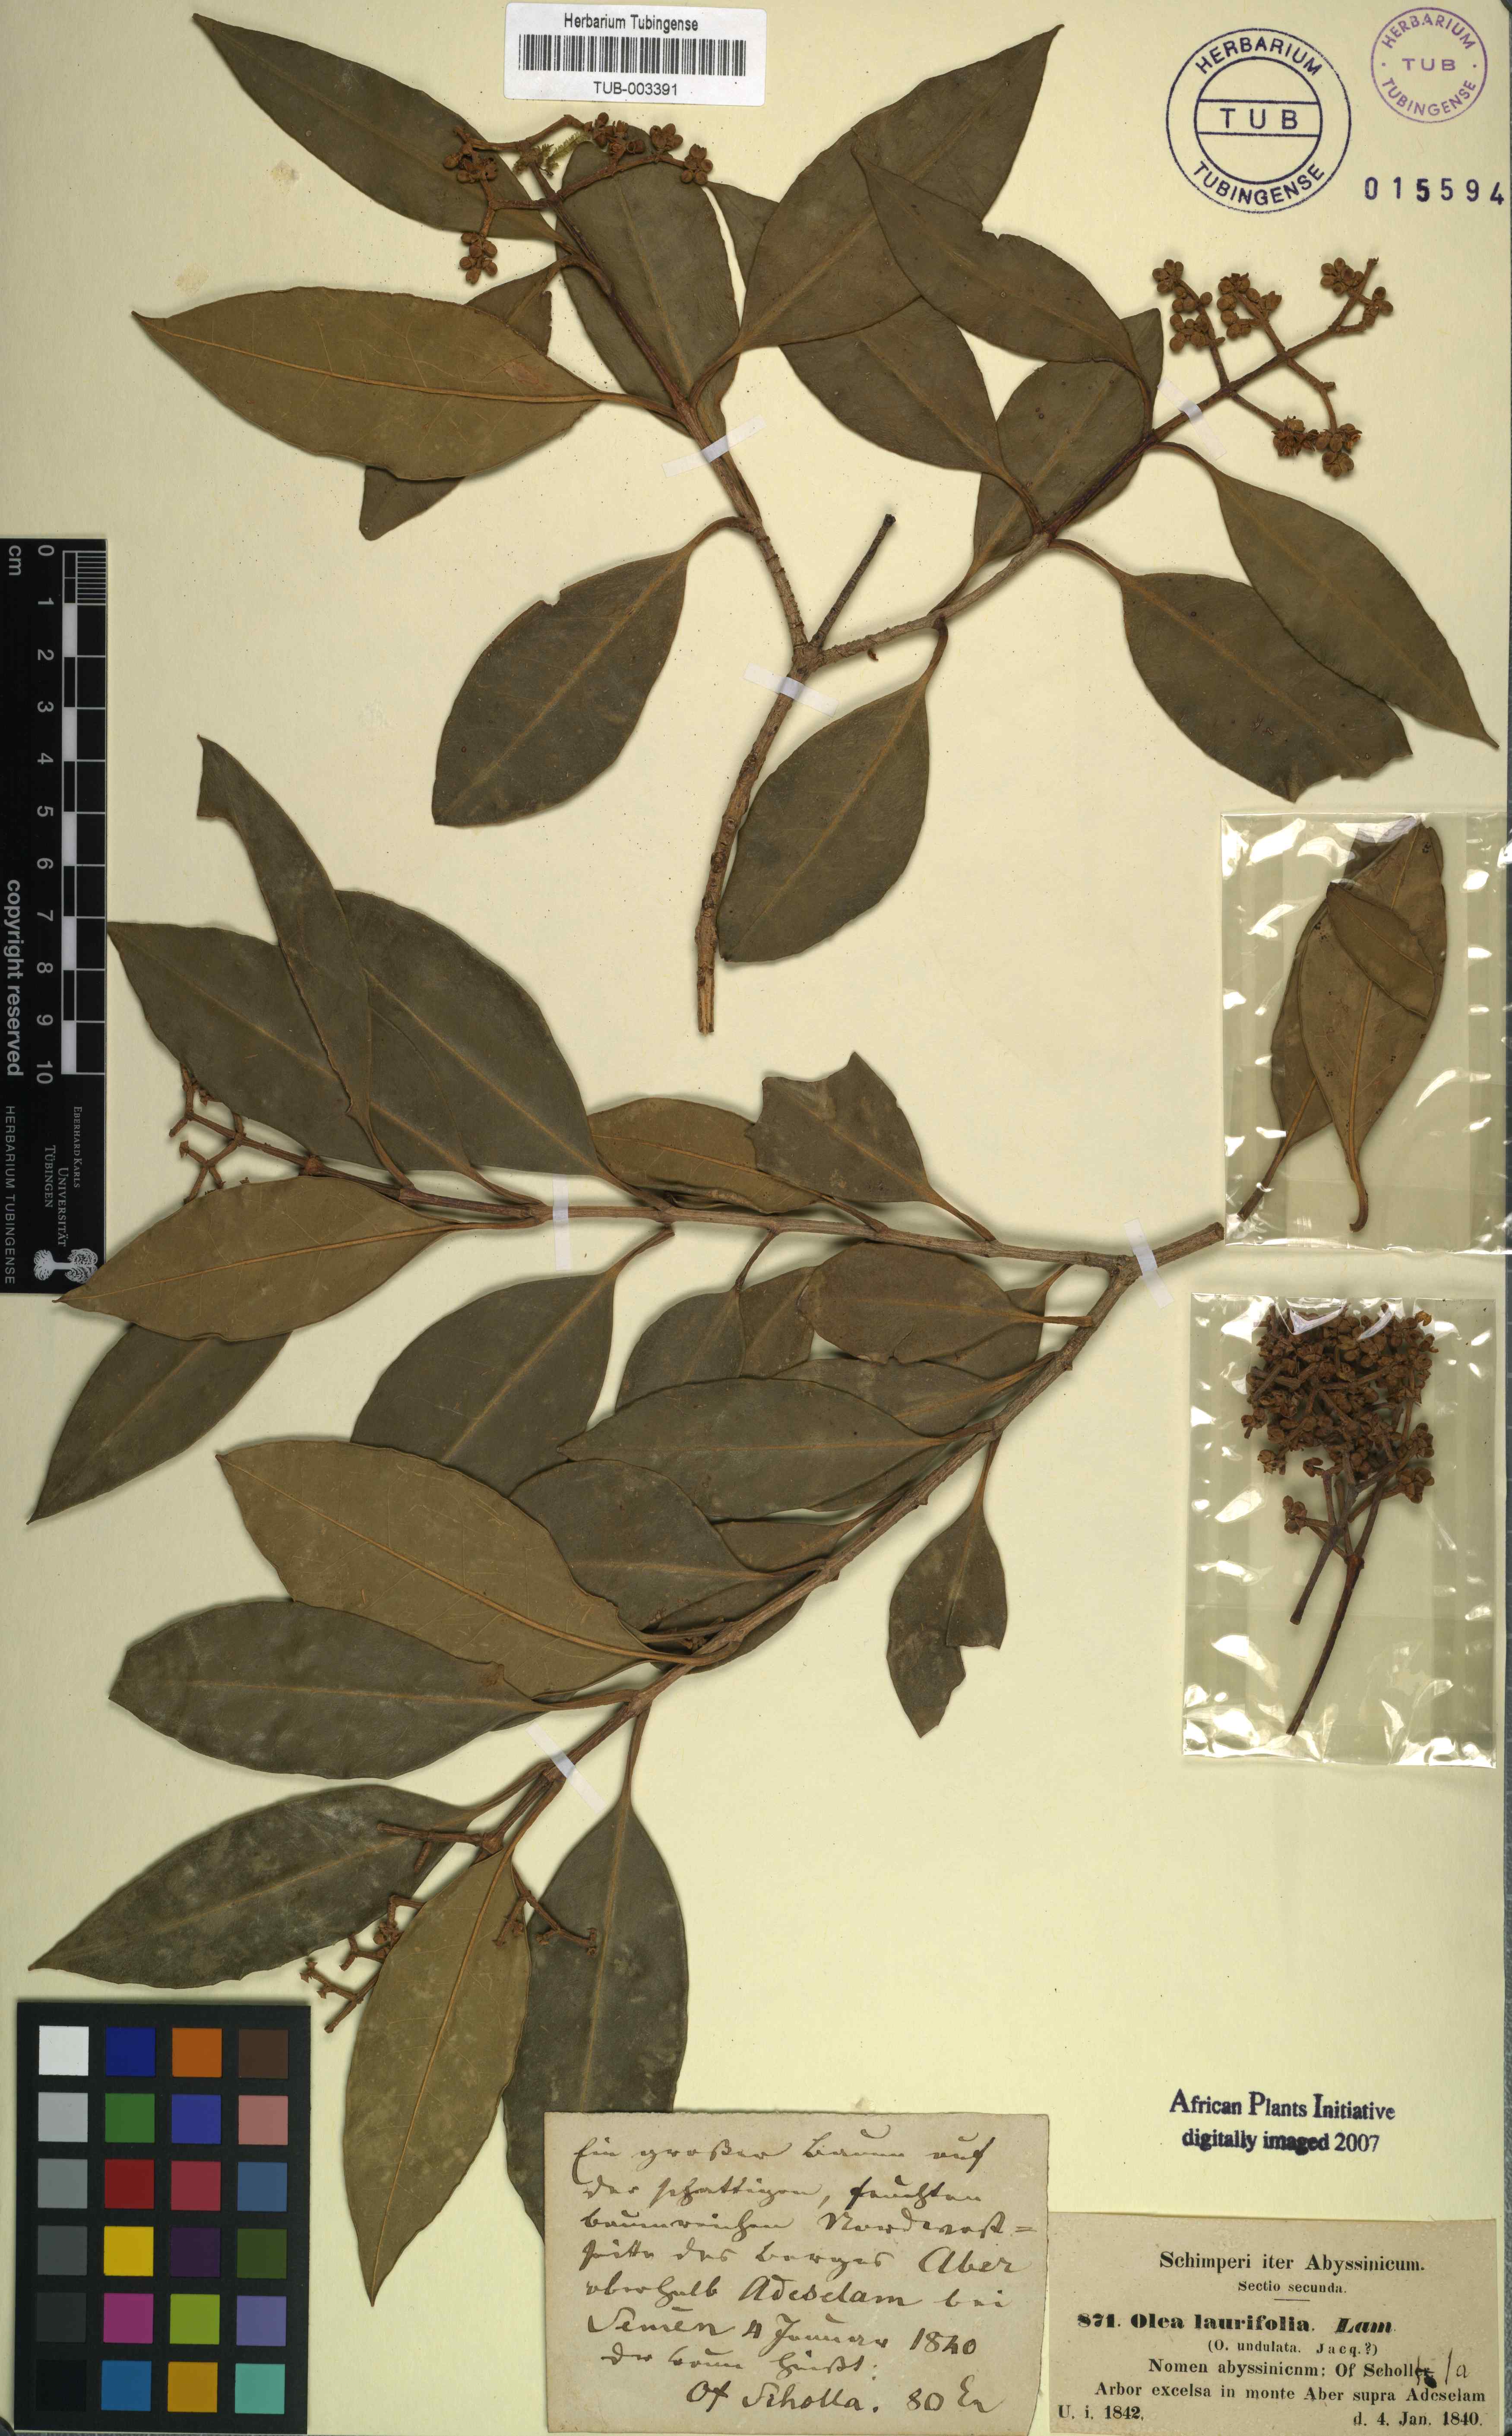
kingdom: Plantae
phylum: Tracheophyta
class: Magnoliopsida
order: Lamiales
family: Oleaceae
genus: Olea
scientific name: Olea capensis
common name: Black ironwood
